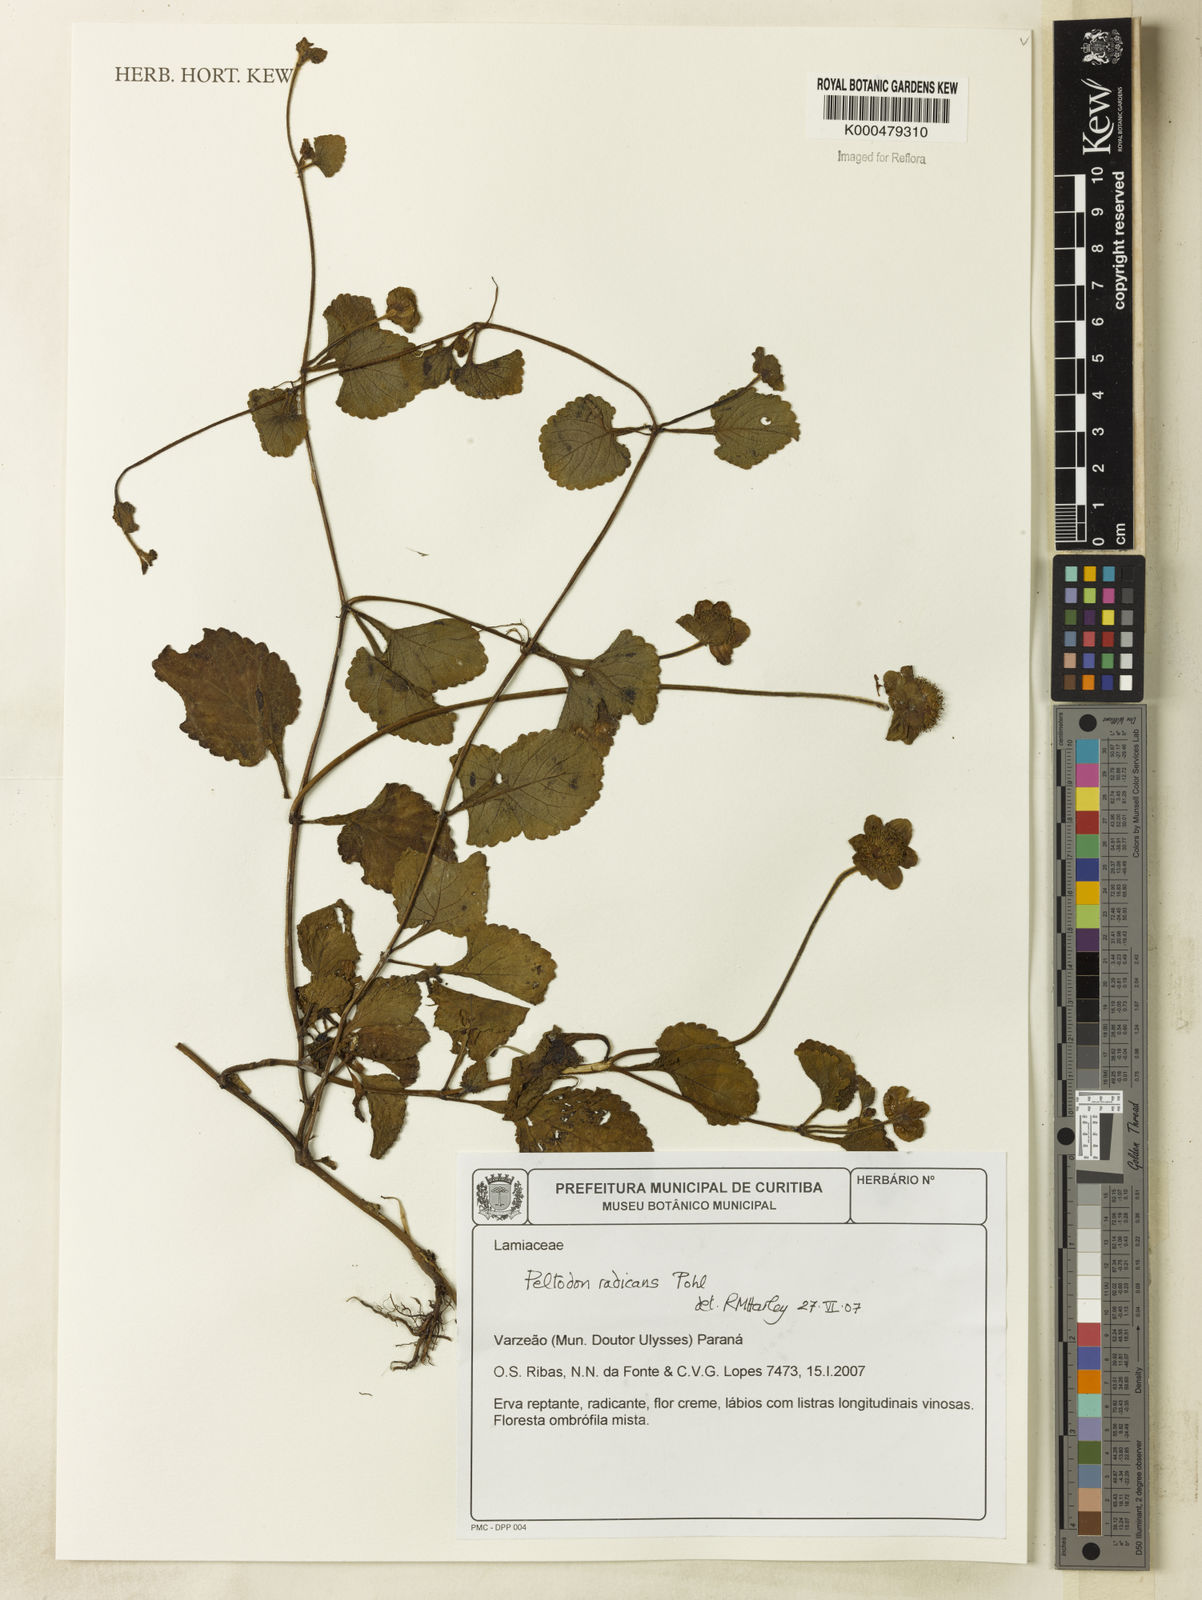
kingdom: Plantae
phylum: Tracheophyta
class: Magnoliopsida
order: Lamiales
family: Lamiaceae
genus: Hyptis
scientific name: Hyptis radicans
